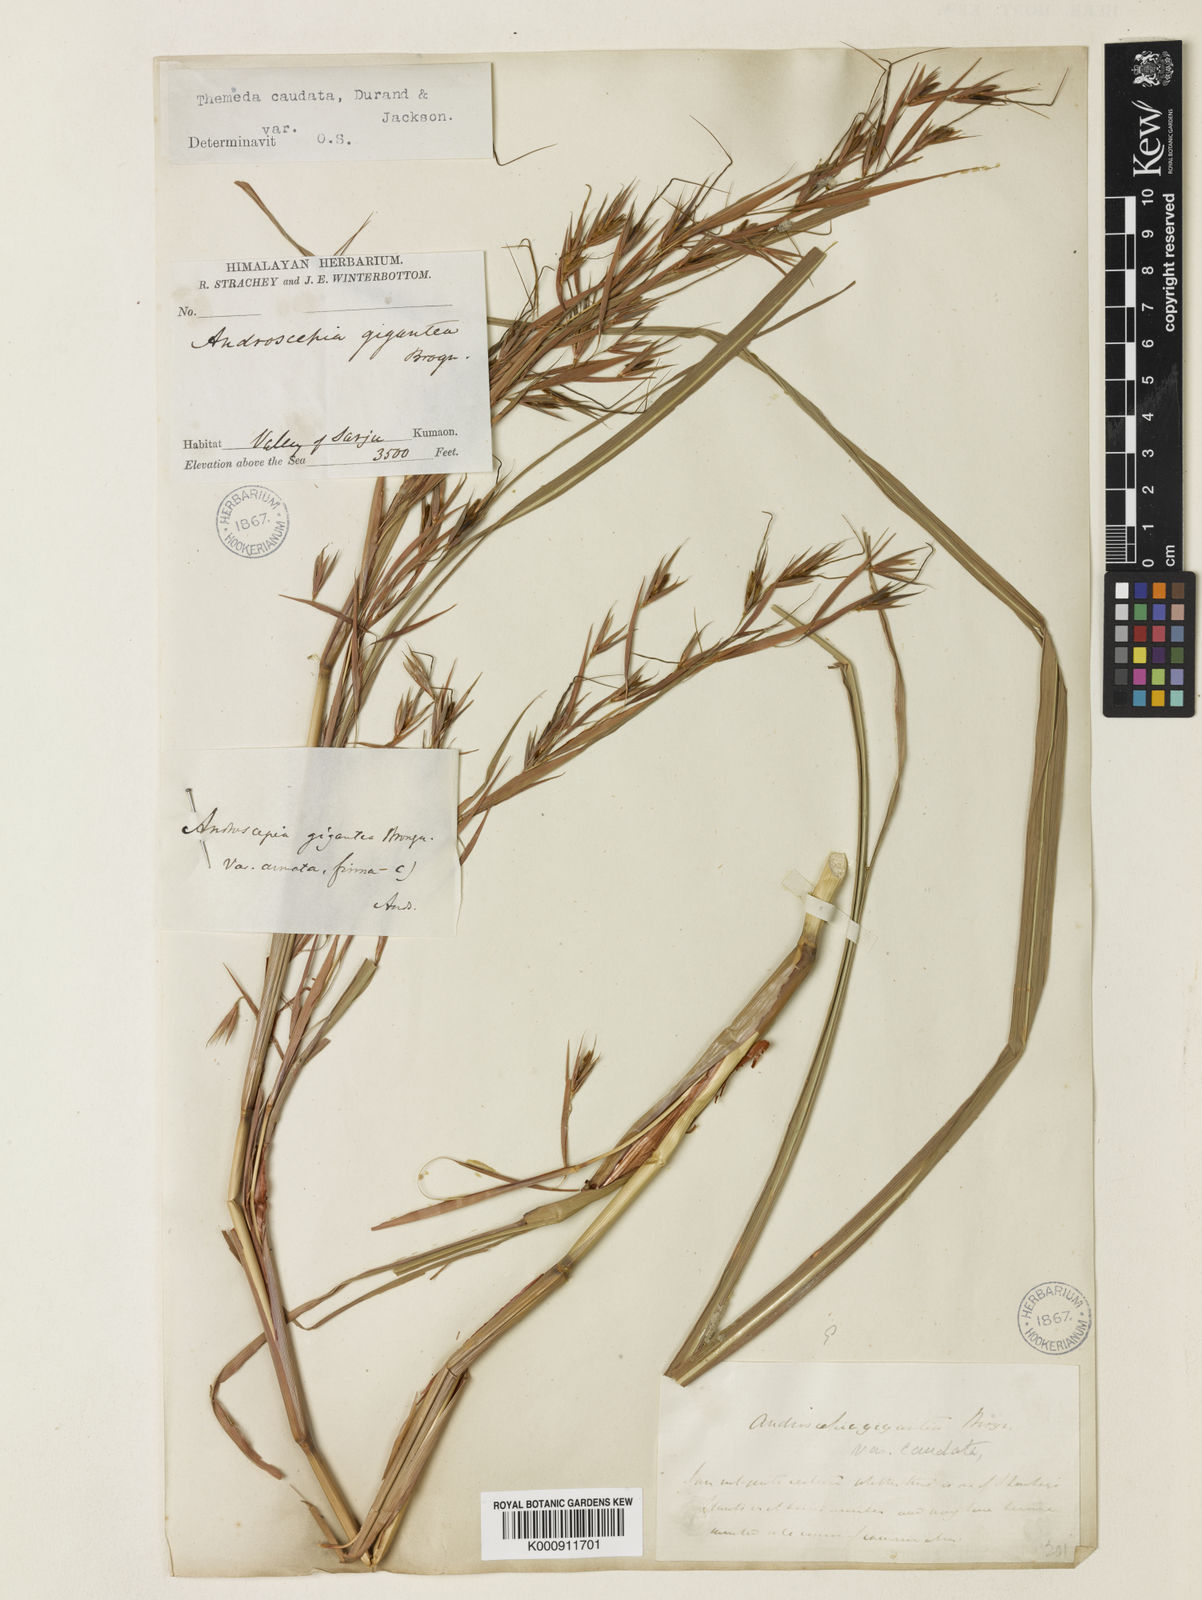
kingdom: Plantae
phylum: Tracheophyta
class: Liliopsida
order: Poales
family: Poaceae
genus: Themeda
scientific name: Themeda
